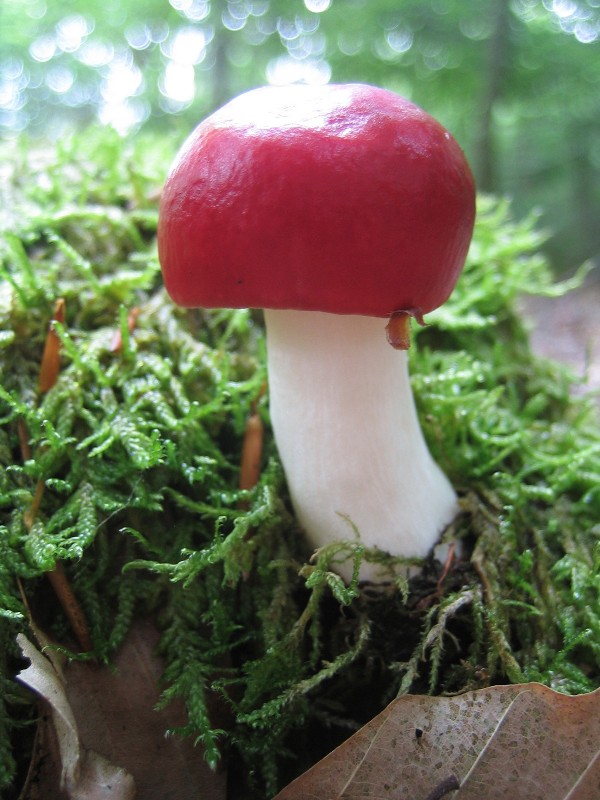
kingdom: Fungi
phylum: Basidiomycota
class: Agaricomycetes
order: Russulales
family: Russulaceae
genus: Russula
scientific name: Russula
